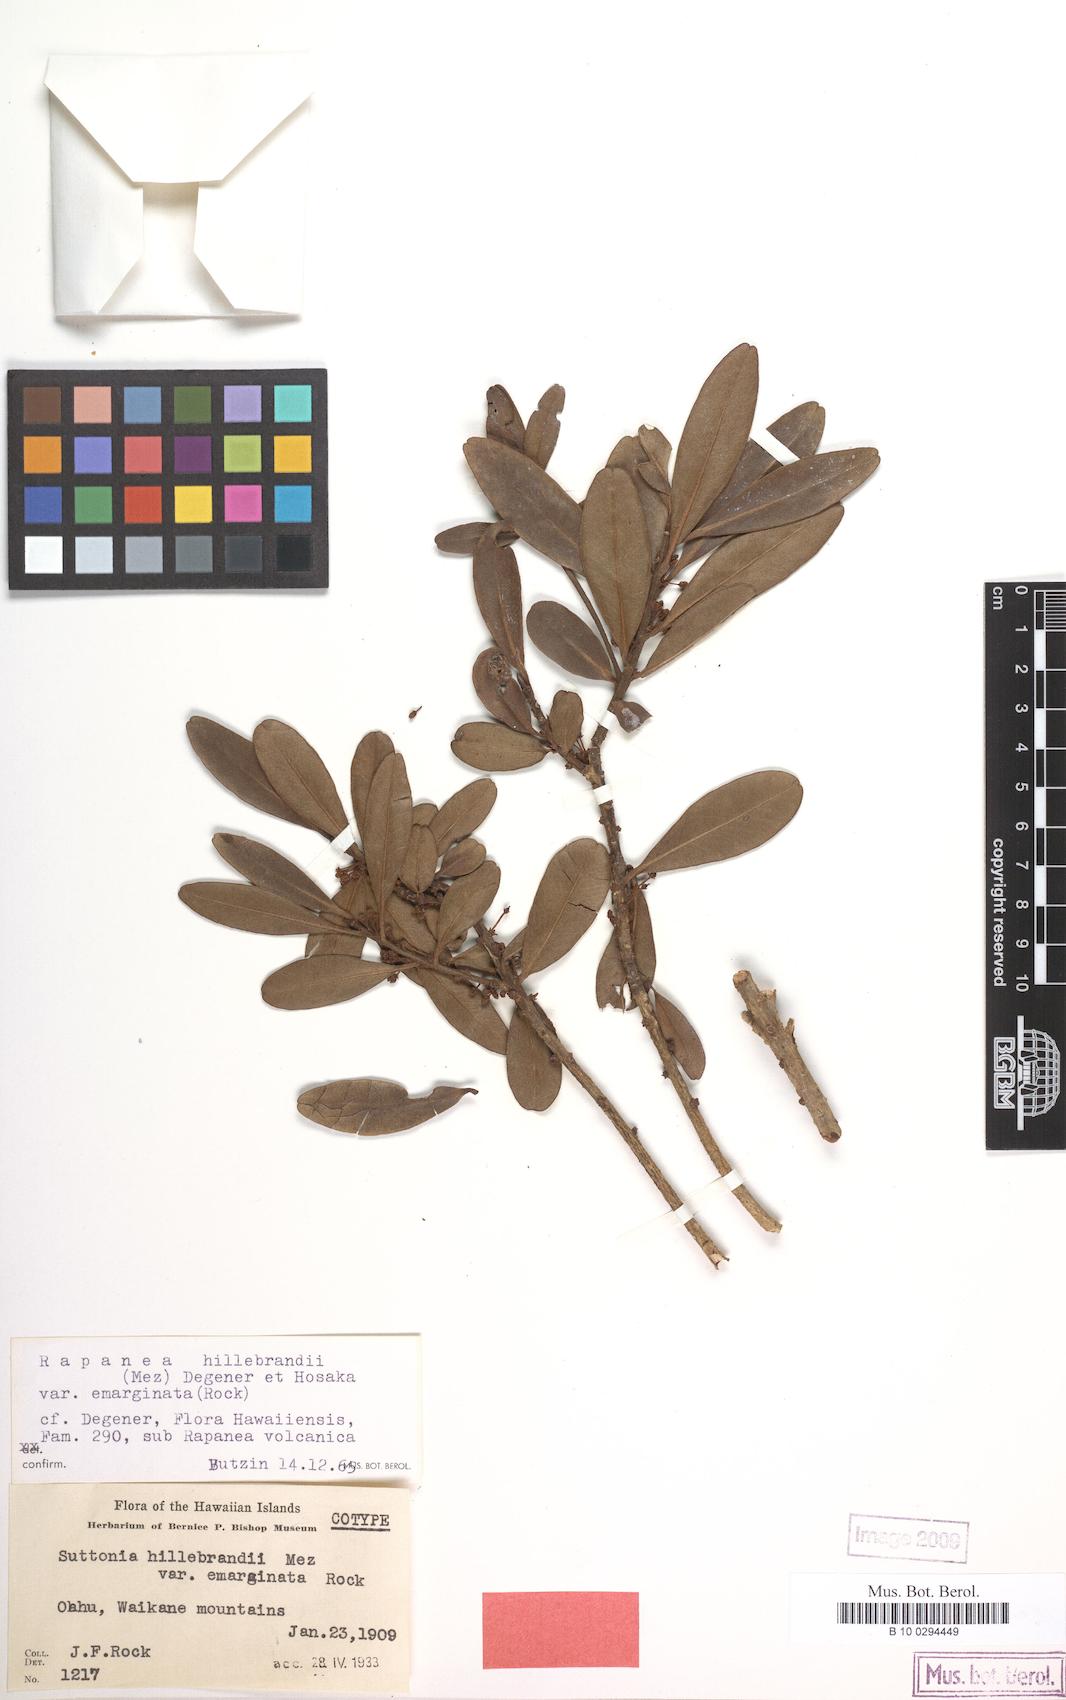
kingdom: Plantae
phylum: Tracheophyta
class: Magnoliopsida
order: Ericales
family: Primulaceae
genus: Myrsine
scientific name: Myrsine kauaiensis
